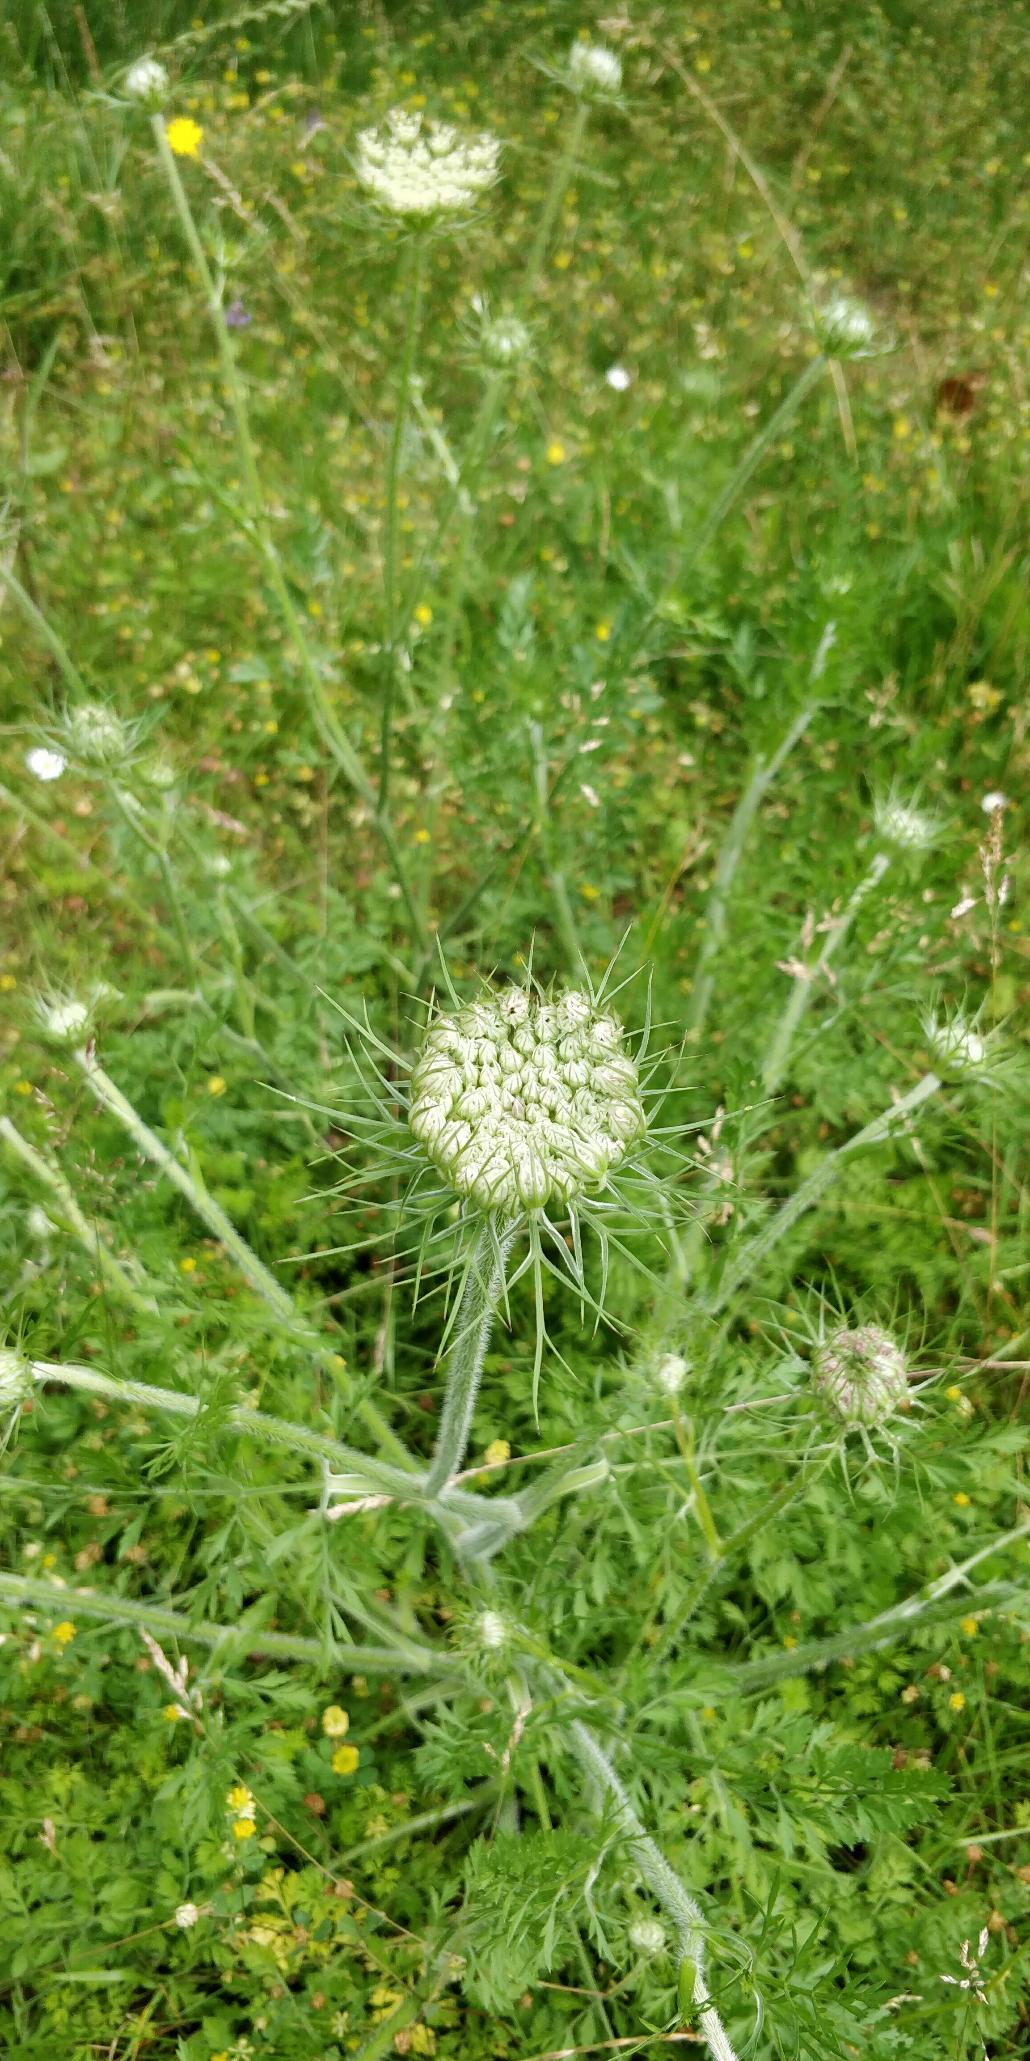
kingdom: Plantae
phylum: Tracheophyta
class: Magnoliopsida
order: Apiales
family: Apiaceae
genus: Daucus
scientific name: Daucus carota
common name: Vild gulerod
